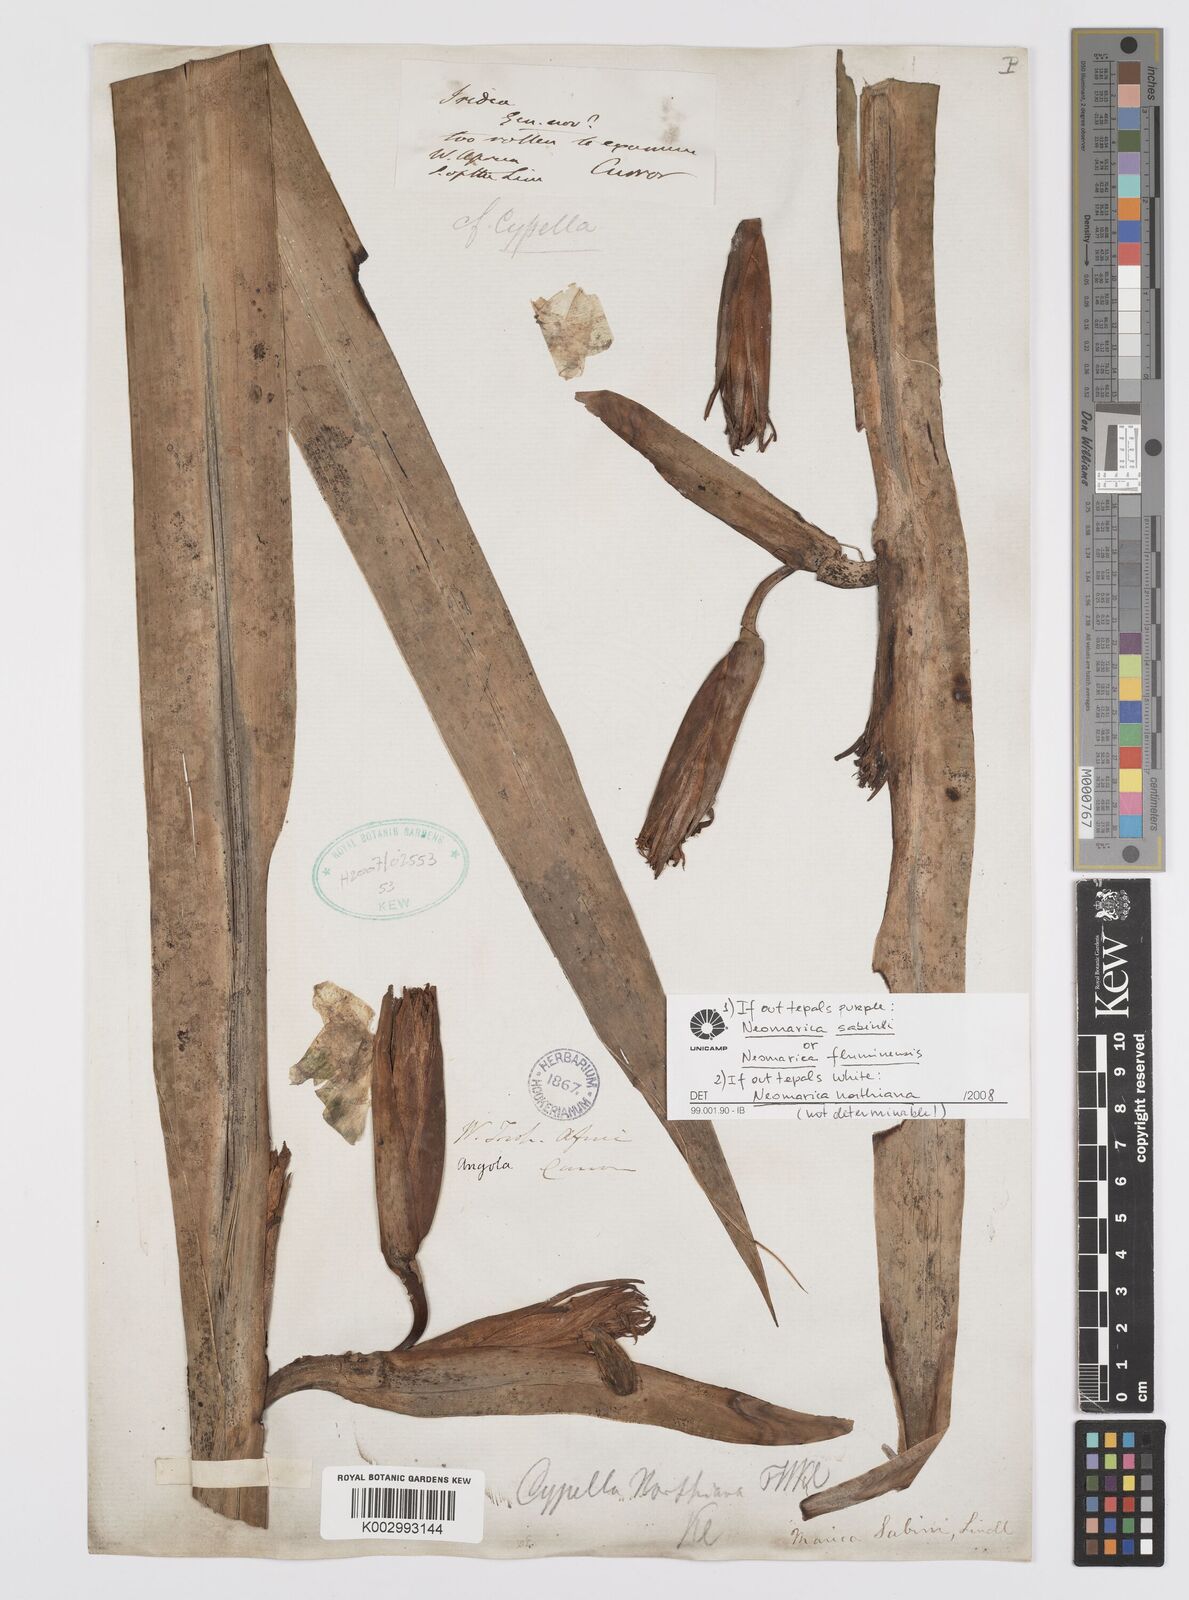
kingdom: Plantae
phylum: Tracheophyta
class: Liliopsida
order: Asparagales
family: Iridaceae
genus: Trimezia
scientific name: Trimezia northiana
